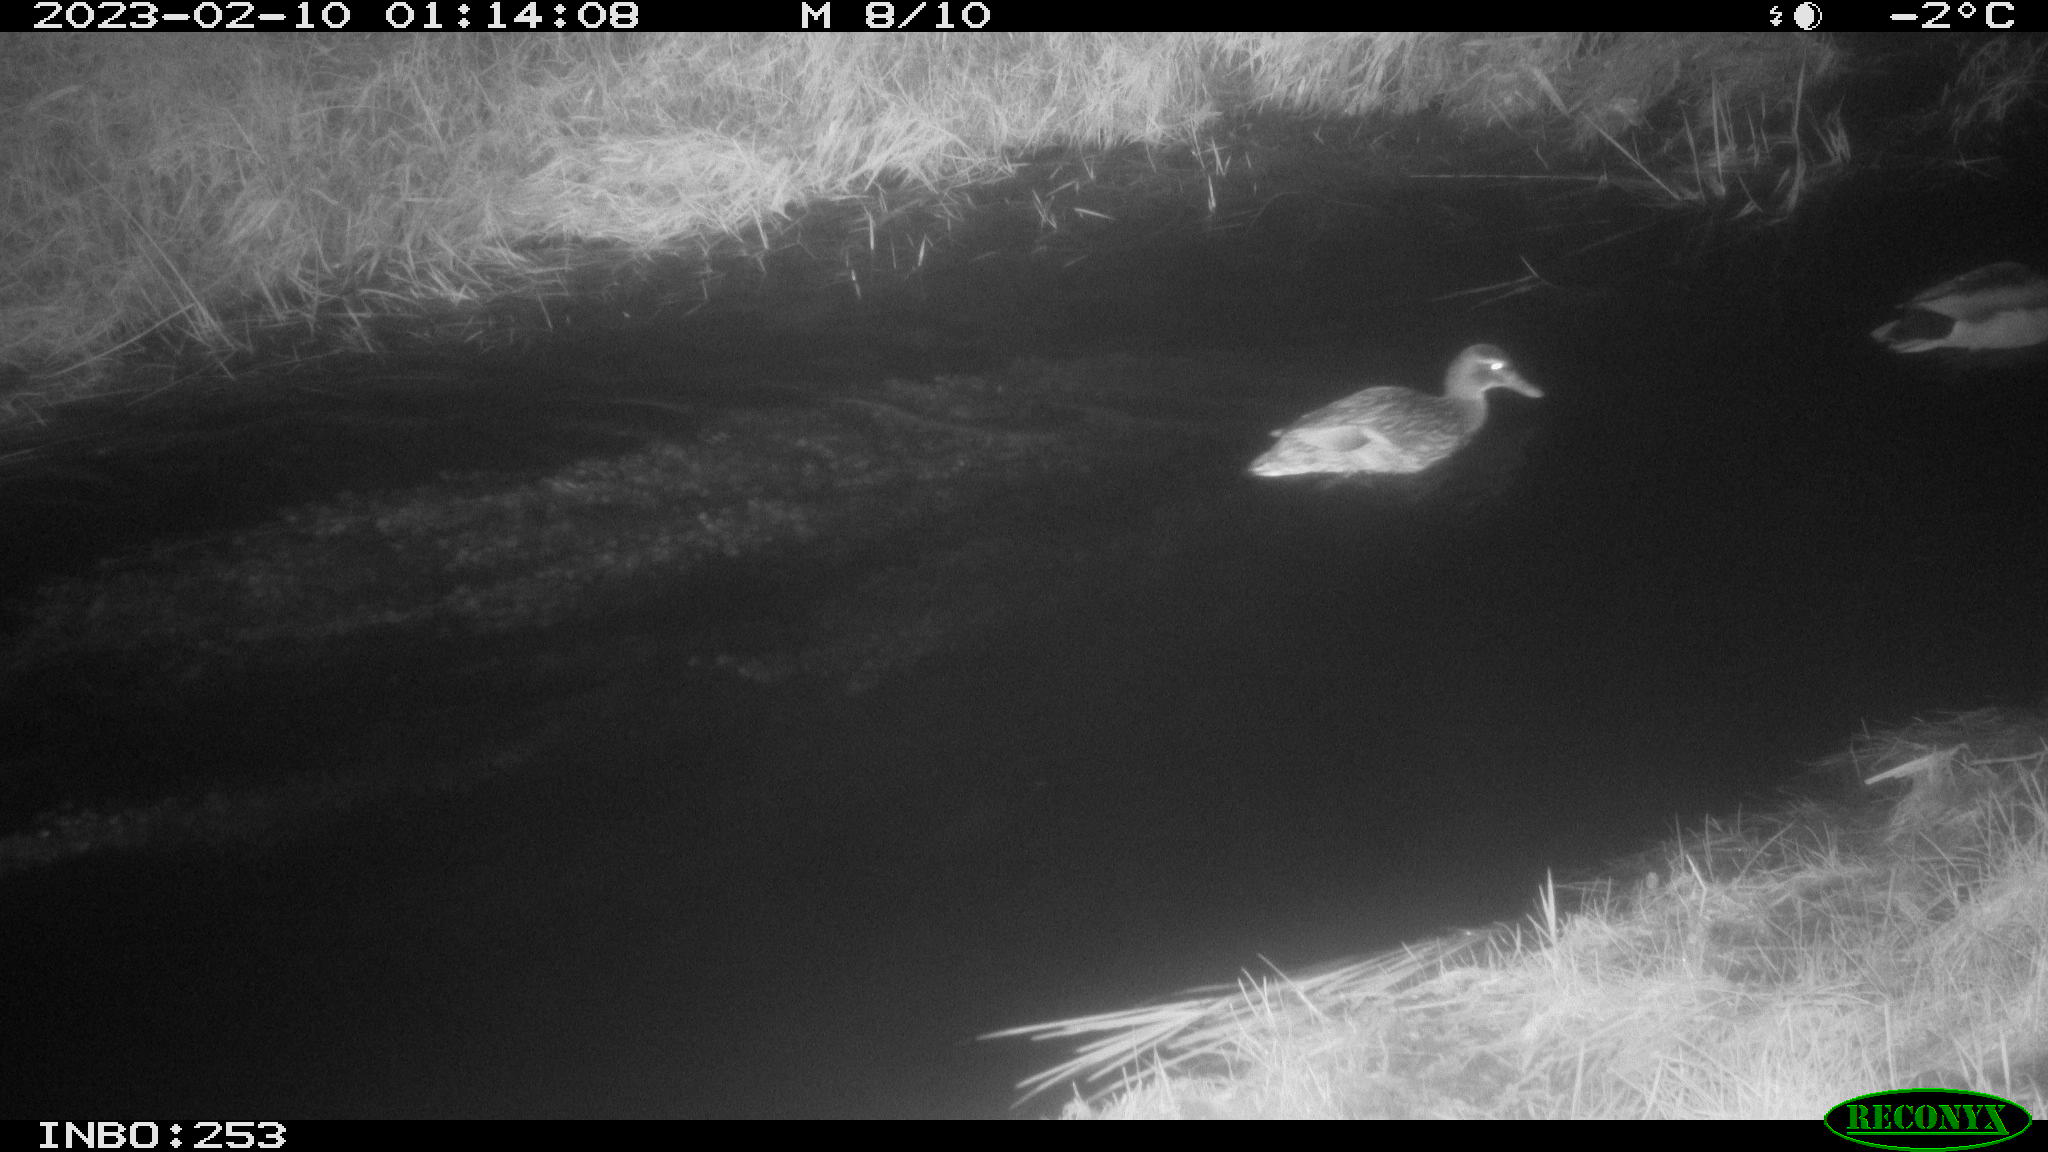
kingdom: Animalia
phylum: Chordata
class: Aves
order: Anseriformes
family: Anatidae
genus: Anas
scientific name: Anas
